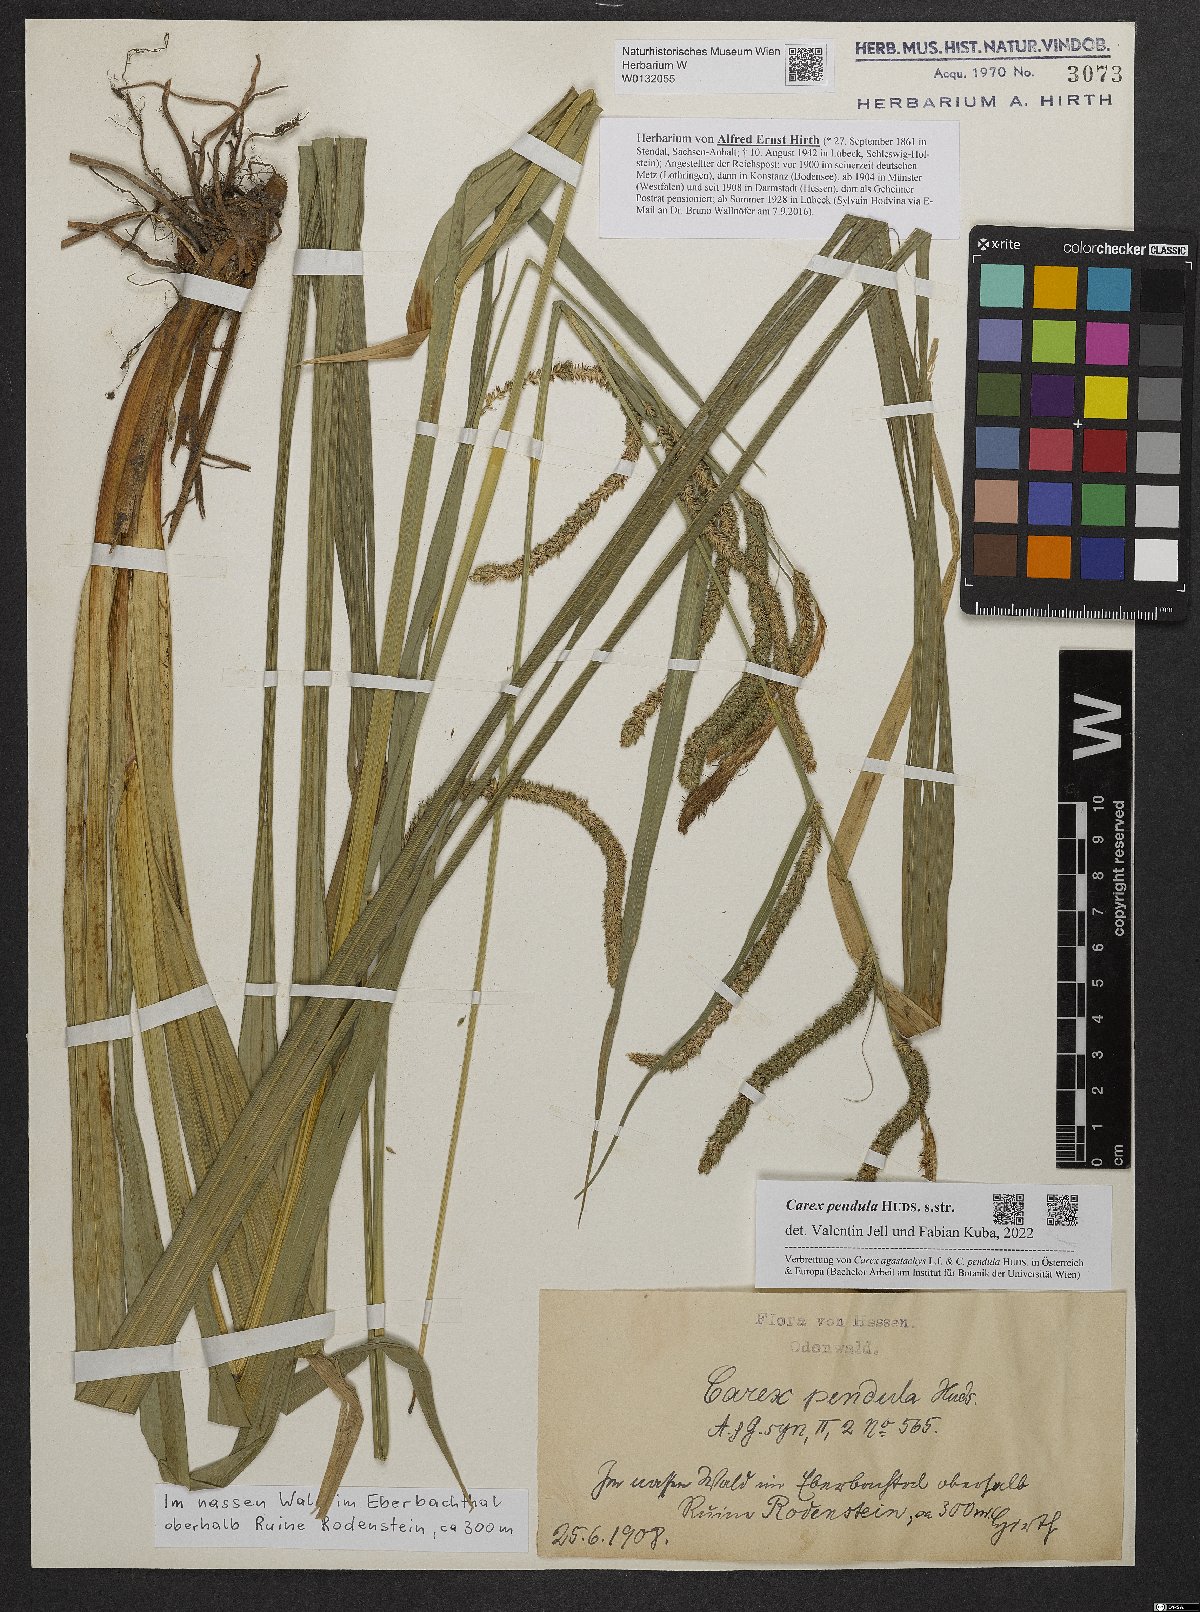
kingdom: Plantae
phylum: Tracheophyta
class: Liliopsida
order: Poales
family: Cyperaceae
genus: Carex
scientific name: Carex pendula
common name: Pendulous sedge
